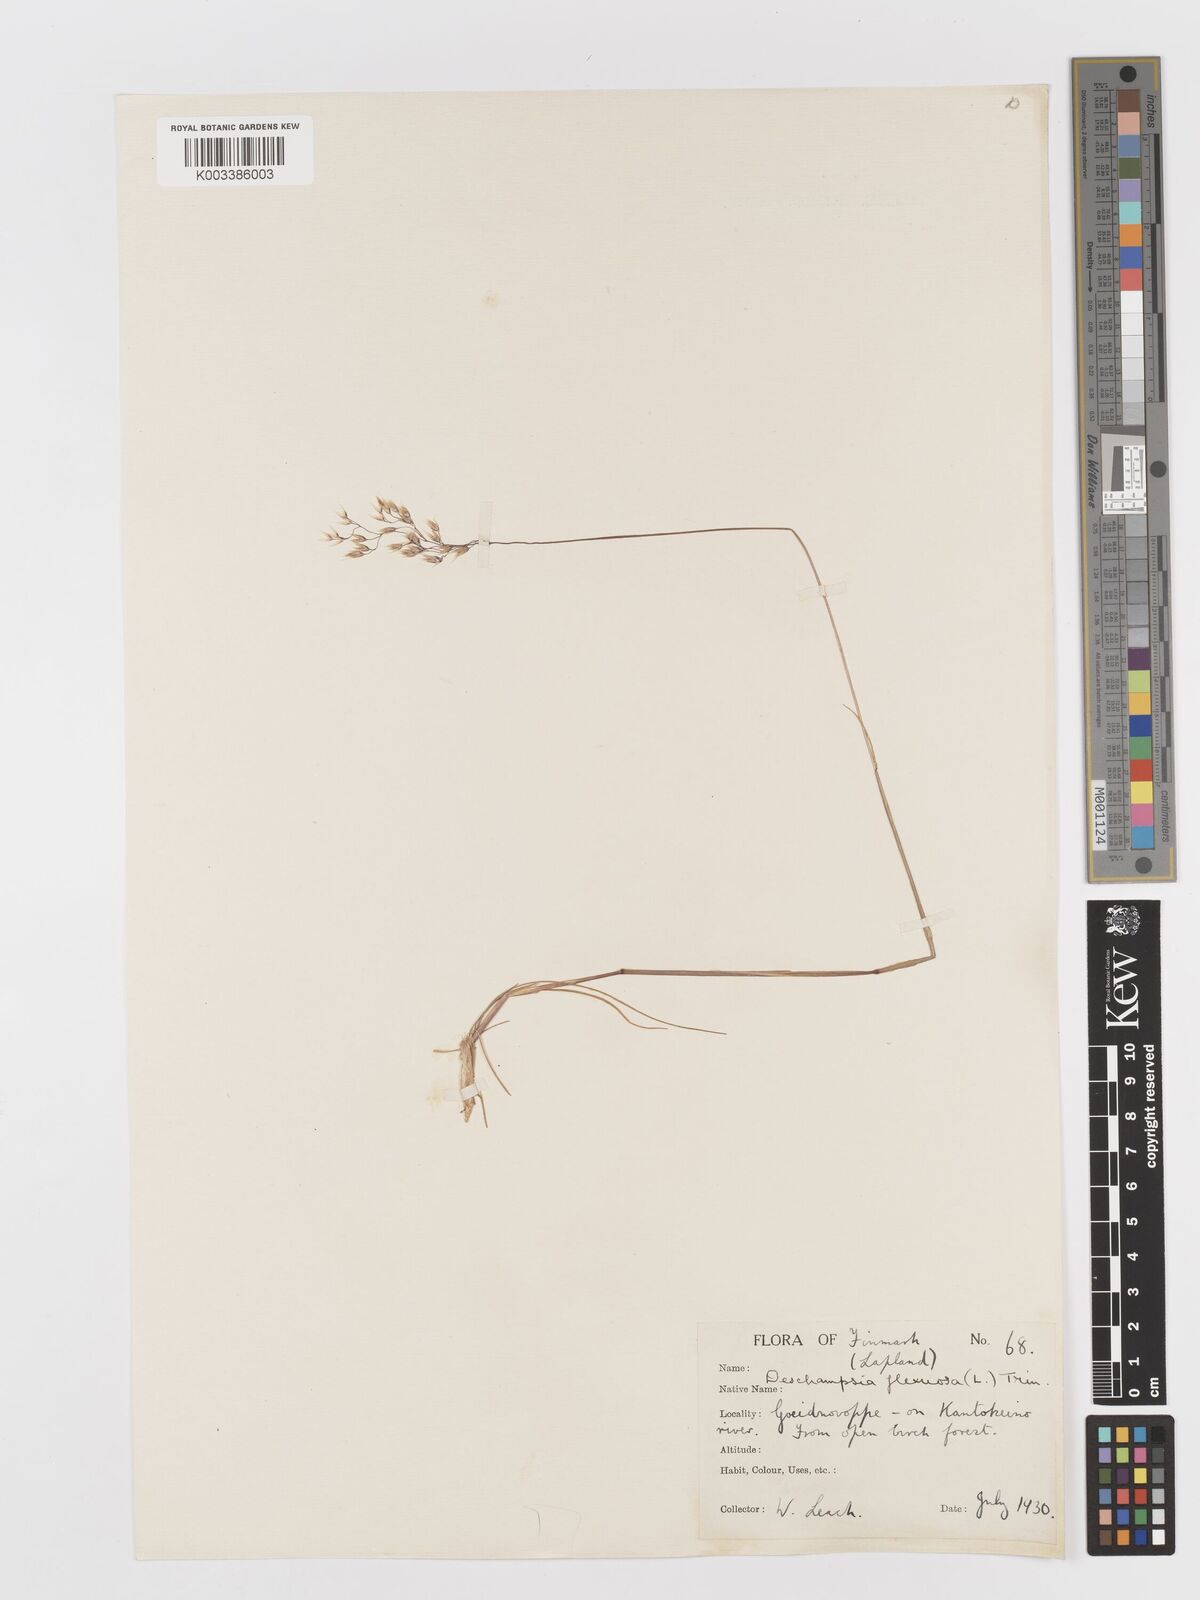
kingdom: Plantae
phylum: Tracheophyta
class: Liliopsida
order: Poales
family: Poaceae
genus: Avenella
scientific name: Avenella flexuosa
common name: Wavy hairgrass
